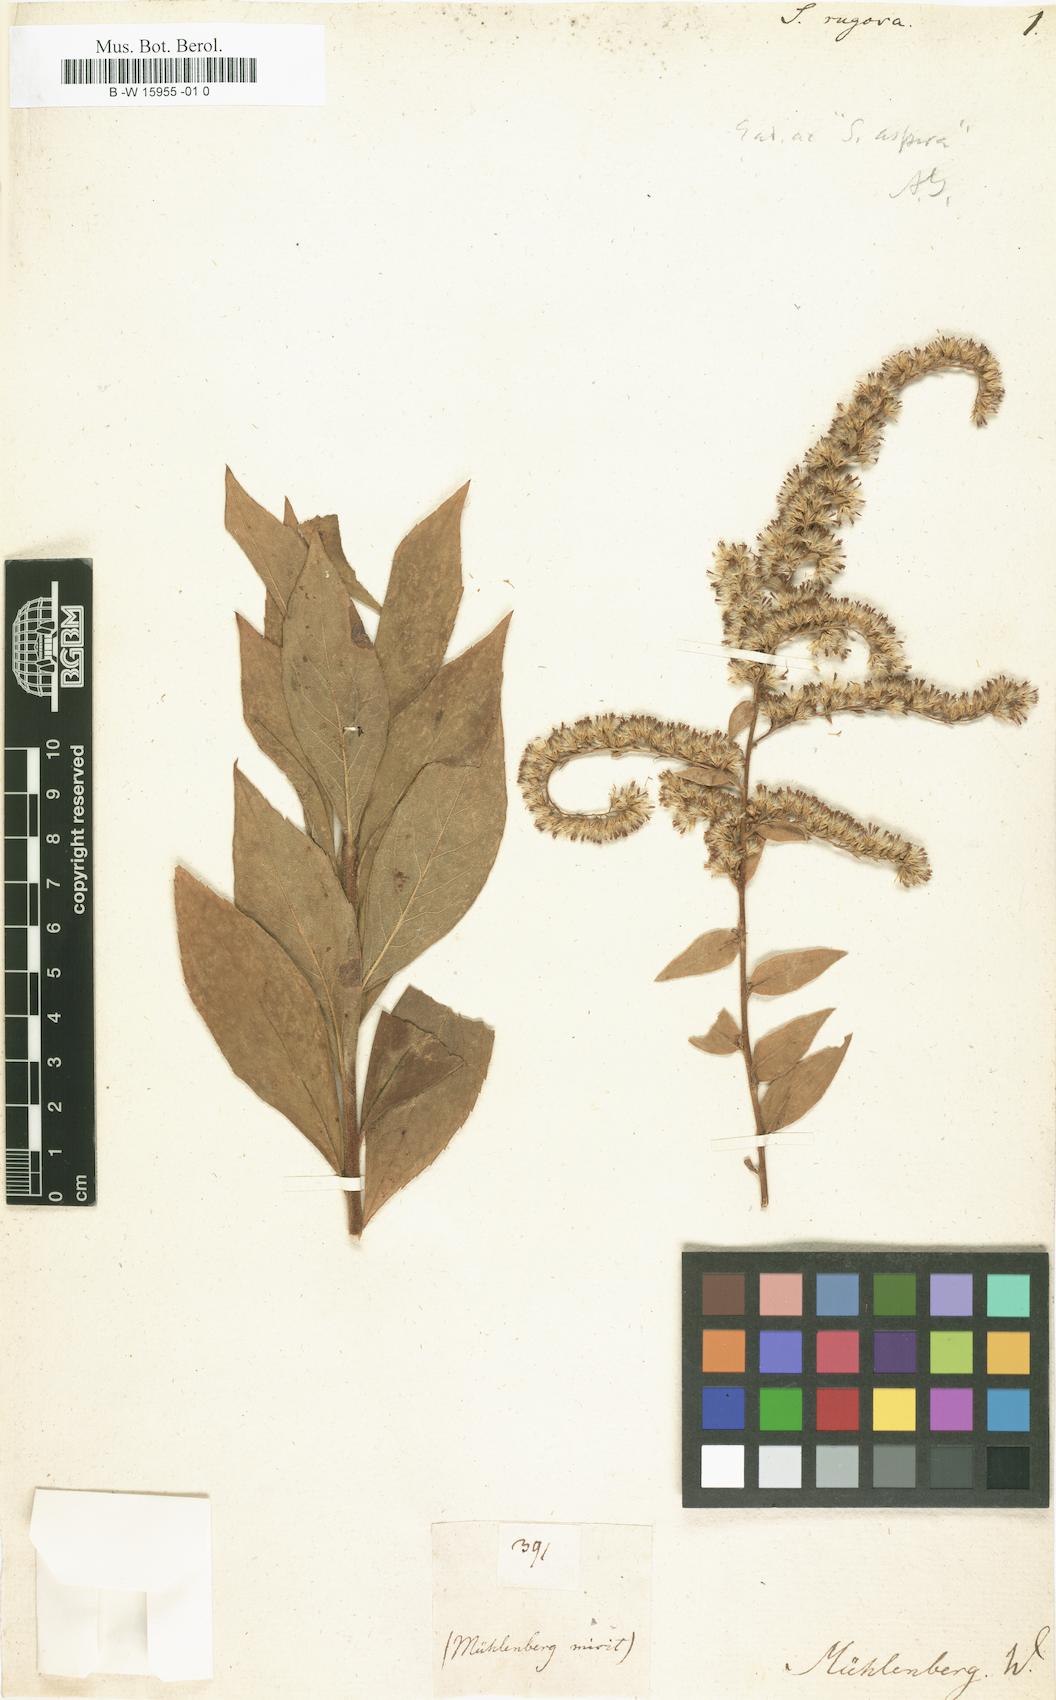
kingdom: Plantae
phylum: Tracheophyta
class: Magnoliopsida
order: Asterales
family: Asteraceae
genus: Solidago
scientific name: Solidago rugosa
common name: Rough-stemmed goldenrod
